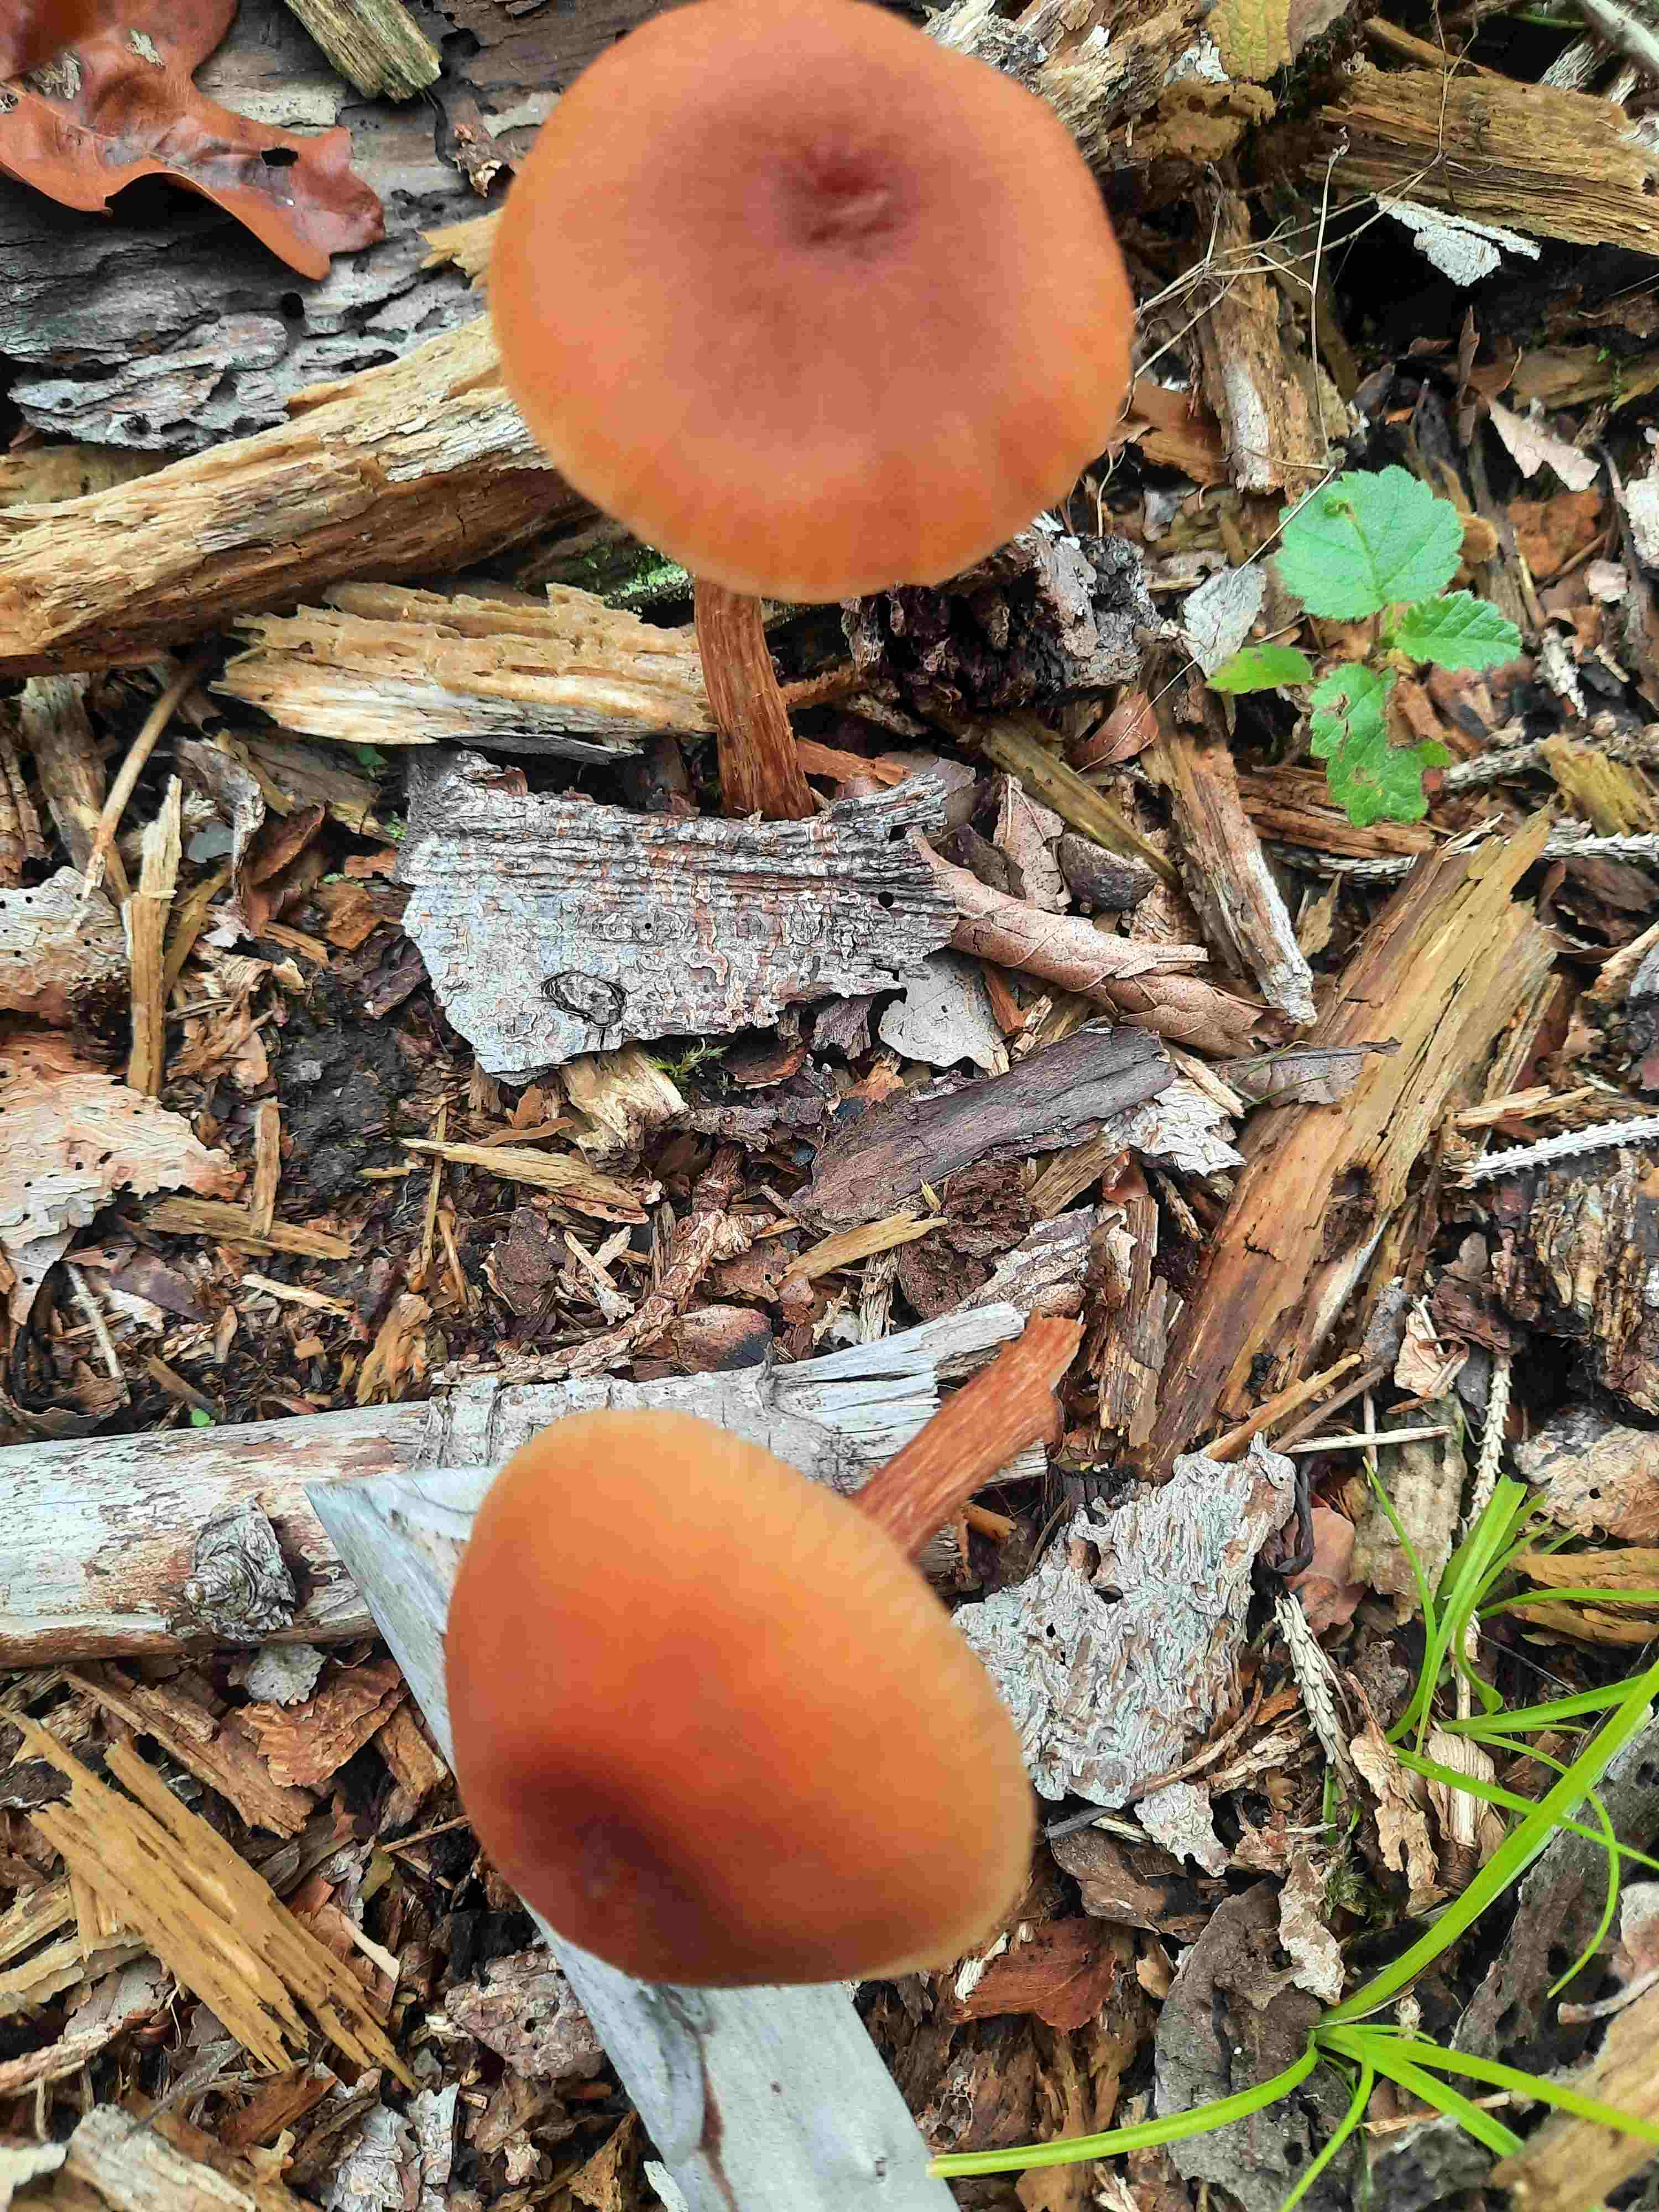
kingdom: Fungi
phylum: Basidiomycota
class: Agaricomycetes
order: Agaricales
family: Hydnangiaceae
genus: Laccaria
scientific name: Laccaria proxima
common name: stor ametysthat
